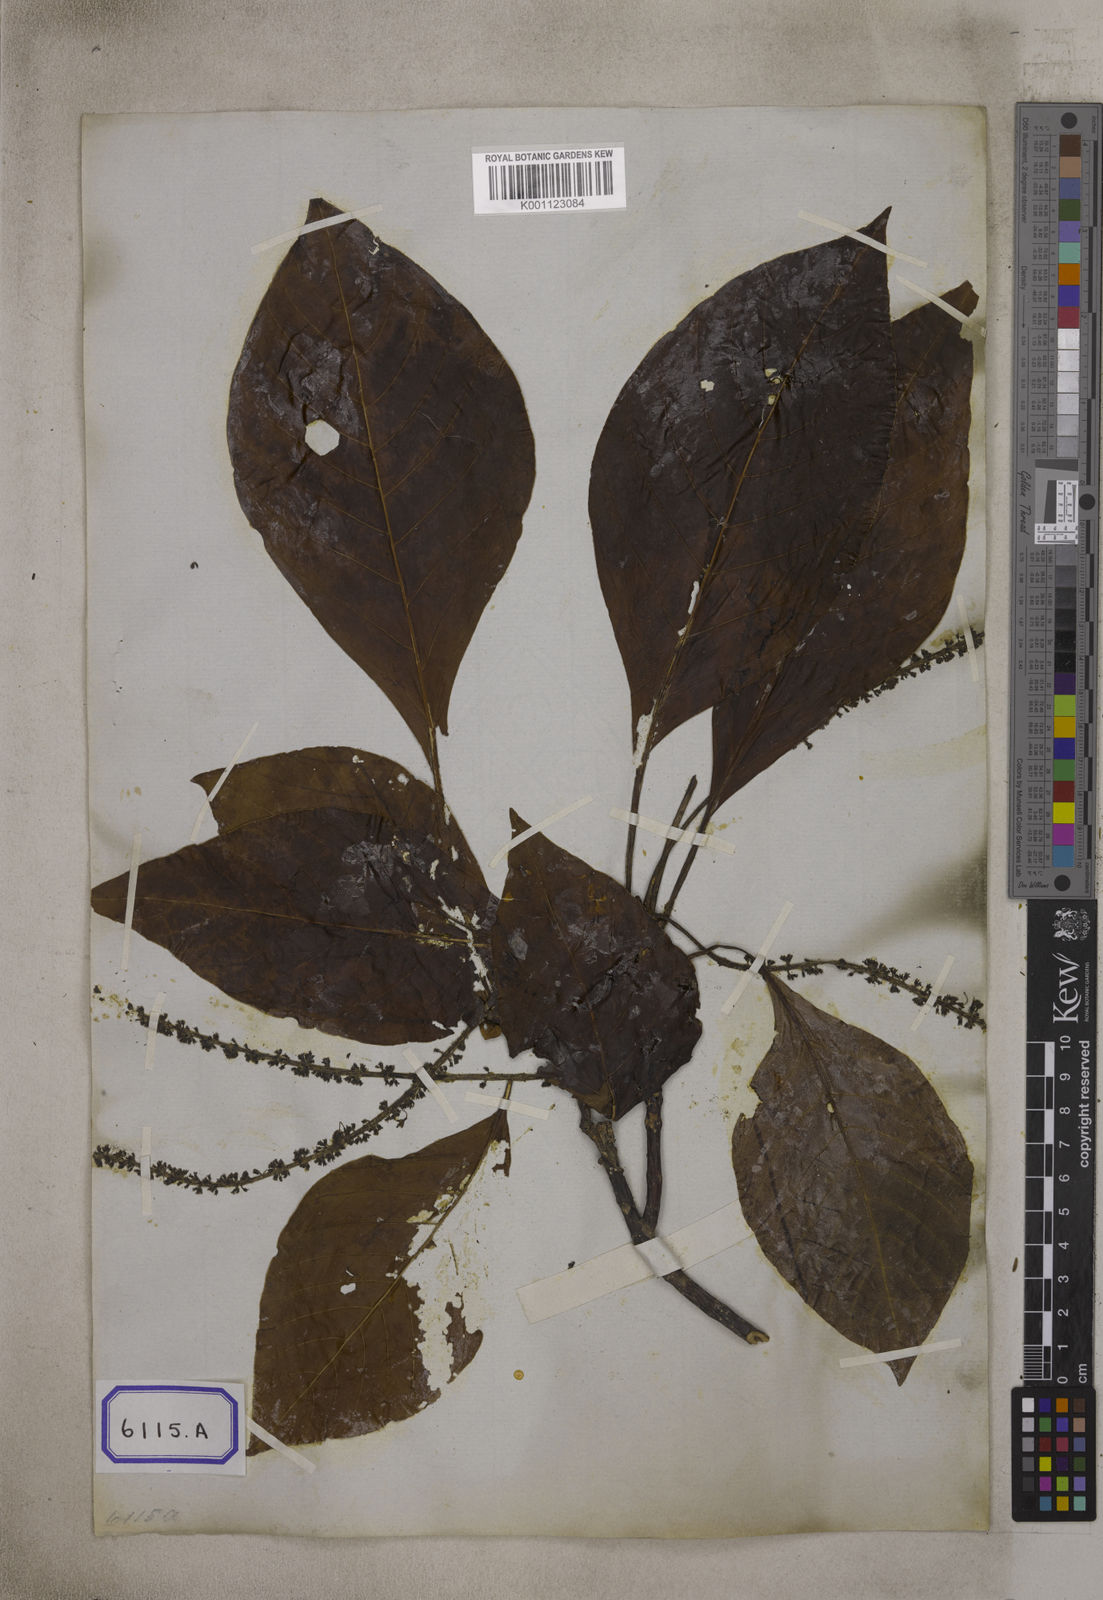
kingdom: Plantae
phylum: Tracheophyta
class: Magnoliopsida
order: Gentianales
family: Rubiaceae
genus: Hymenodictyon
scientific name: Hymenodictyon flaccidum
